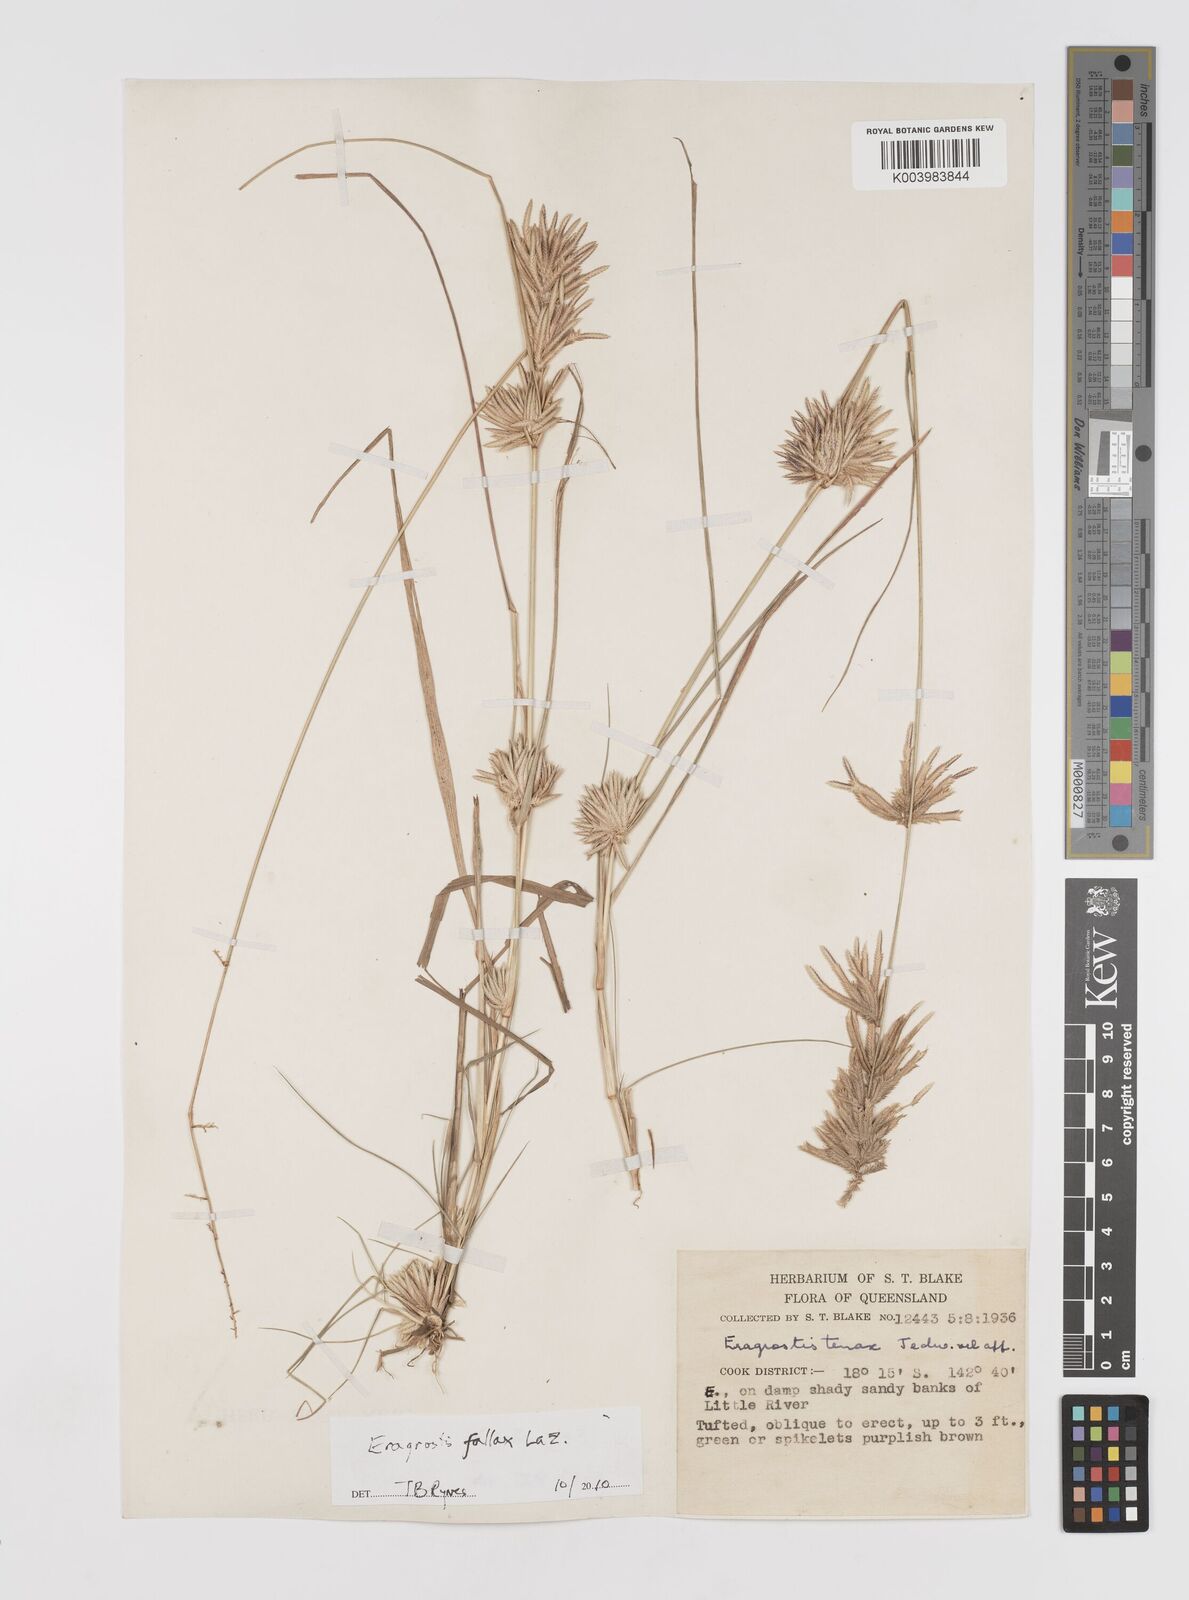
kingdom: Plantae
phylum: Tracheophyta
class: Liliopsida
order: Poales
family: Poaceae
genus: Eragrostis
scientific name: Eragrostis fallax
